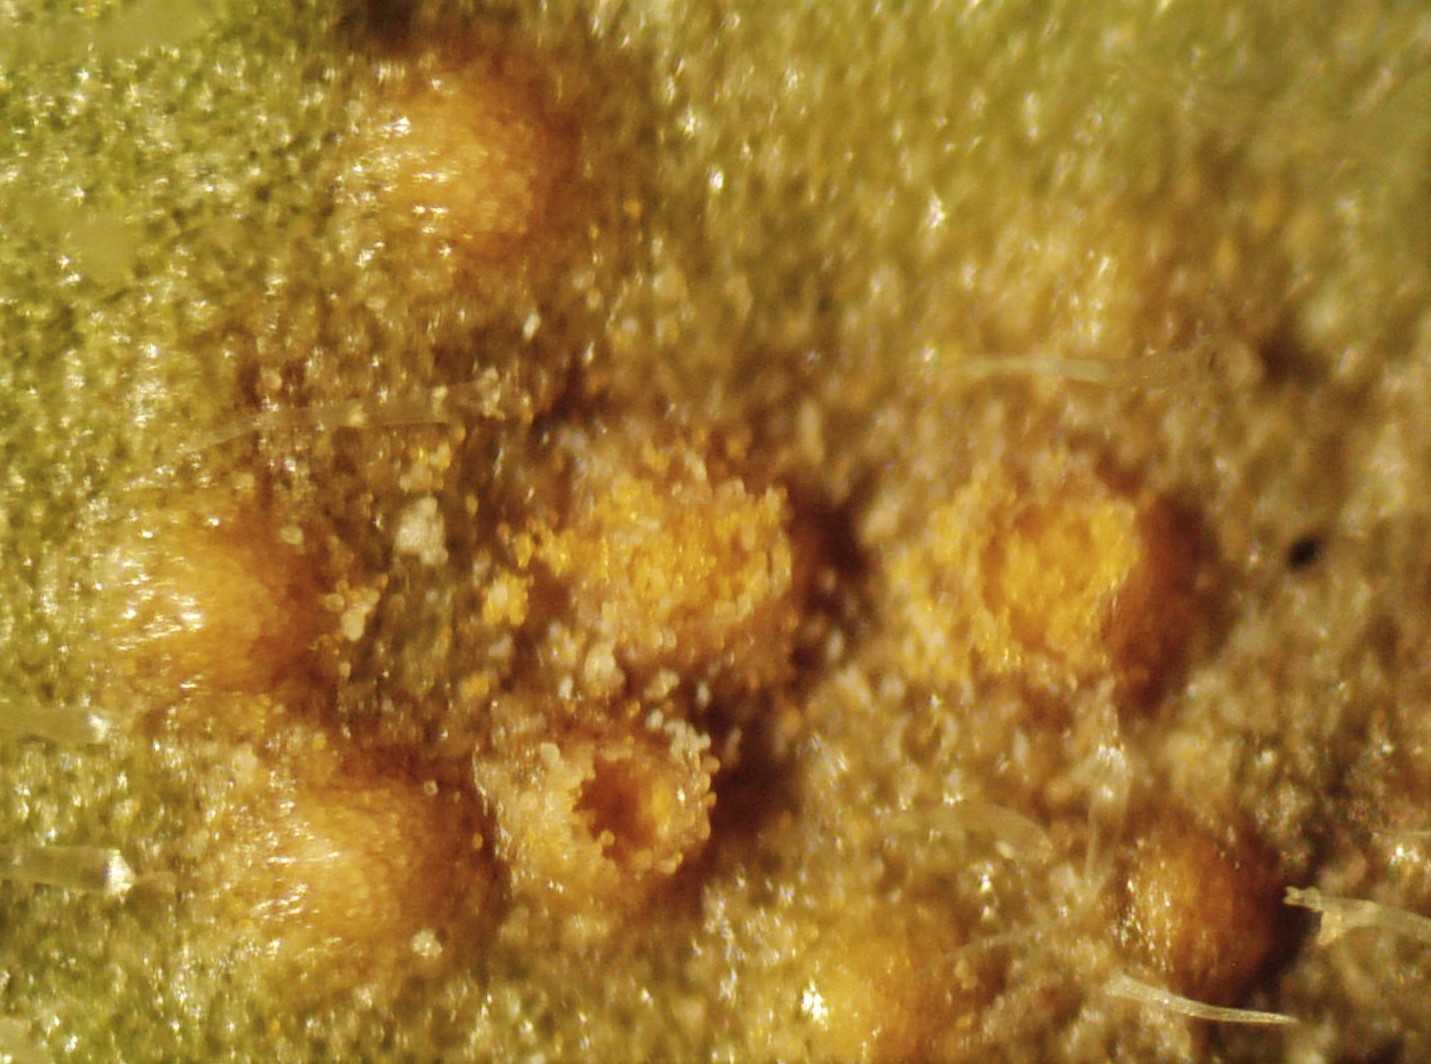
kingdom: Fungi
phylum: Basidiomycota
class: Pucciniomycetes
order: Pucciniales
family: Pucciniaceae
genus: Puccinia
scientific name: Puccinia distincta
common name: Daisy rust
